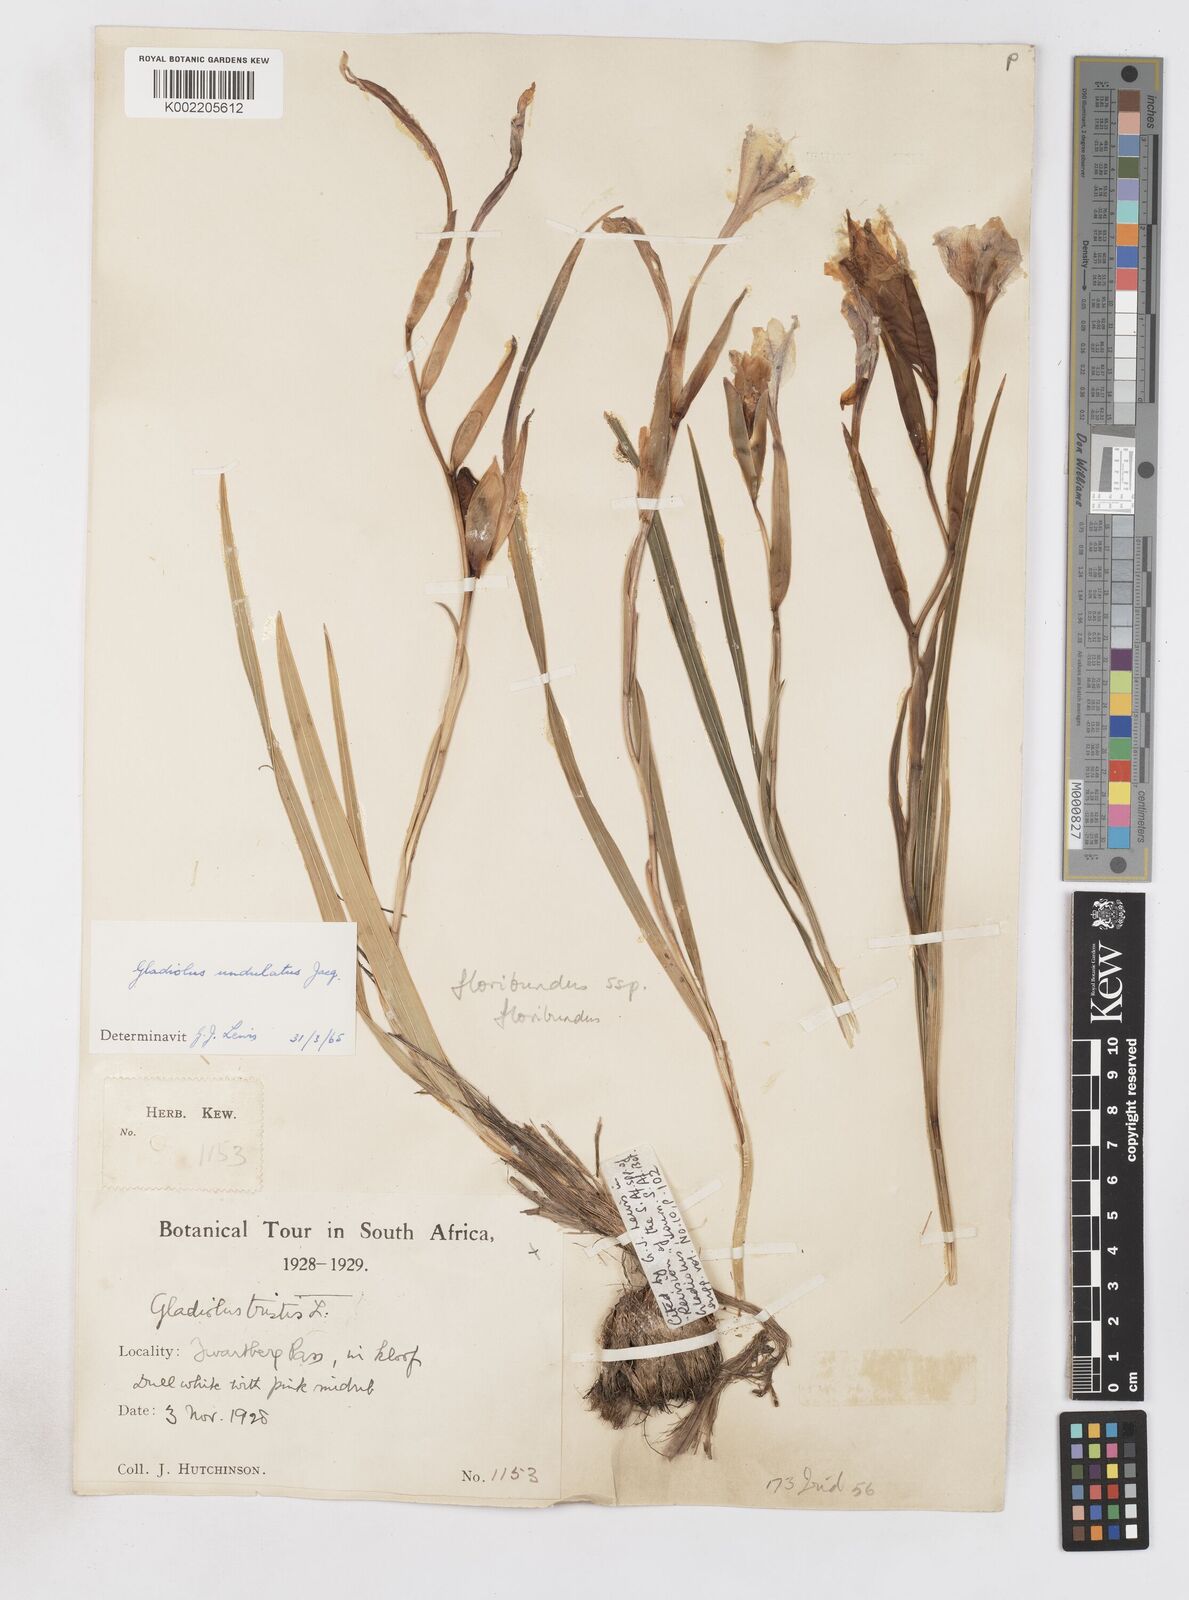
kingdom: Plantae
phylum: Tracheophyta
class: Liliopsida
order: Asparagales
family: Iridaceae
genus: Gladiolus
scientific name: Gladiolus floribundus
